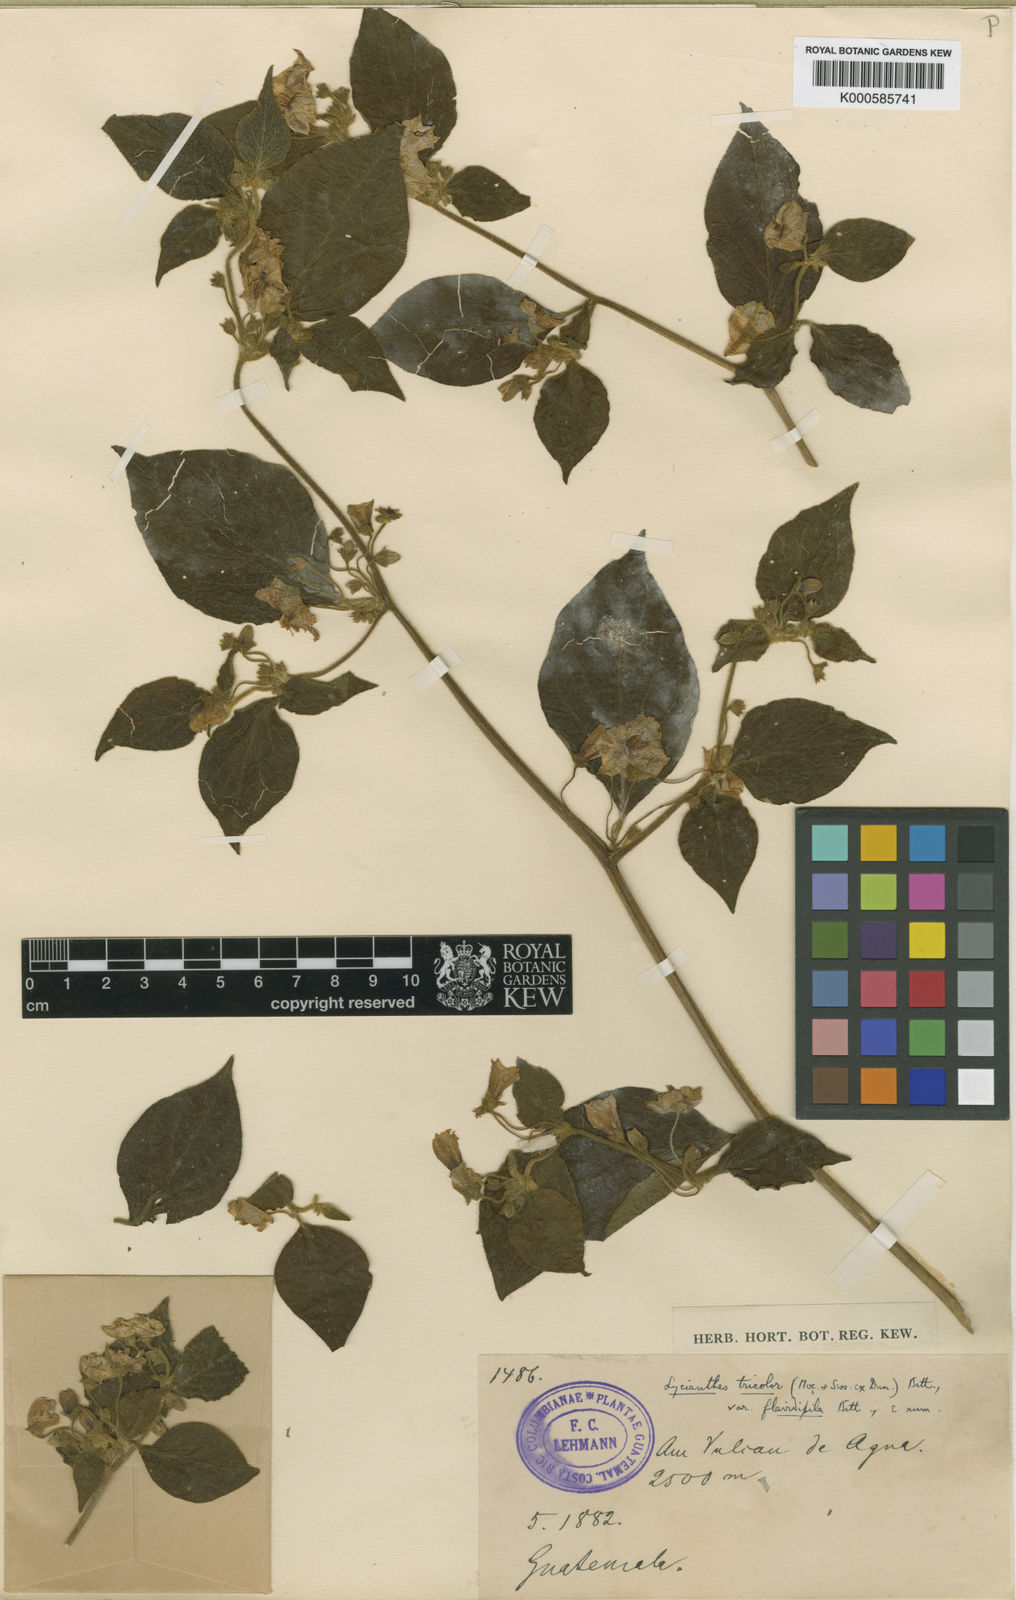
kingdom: Plantae
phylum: Tracheophyta
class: Magnoliopsida
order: Solanales
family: Solanaceae
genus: Lycianthes
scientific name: Lycianthes tricolor
